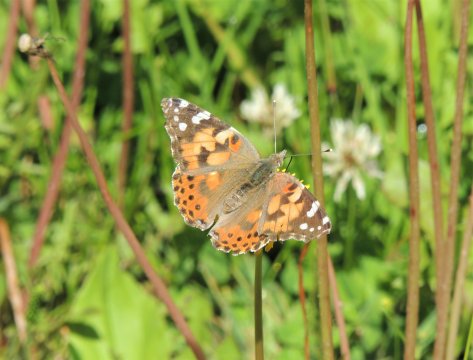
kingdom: Animalia
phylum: Arthropoda
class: Insecta
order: Lepidoptera
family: Nymphalidae
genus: Vanessa
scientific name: Vanessa cardui
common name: Painted Lady
